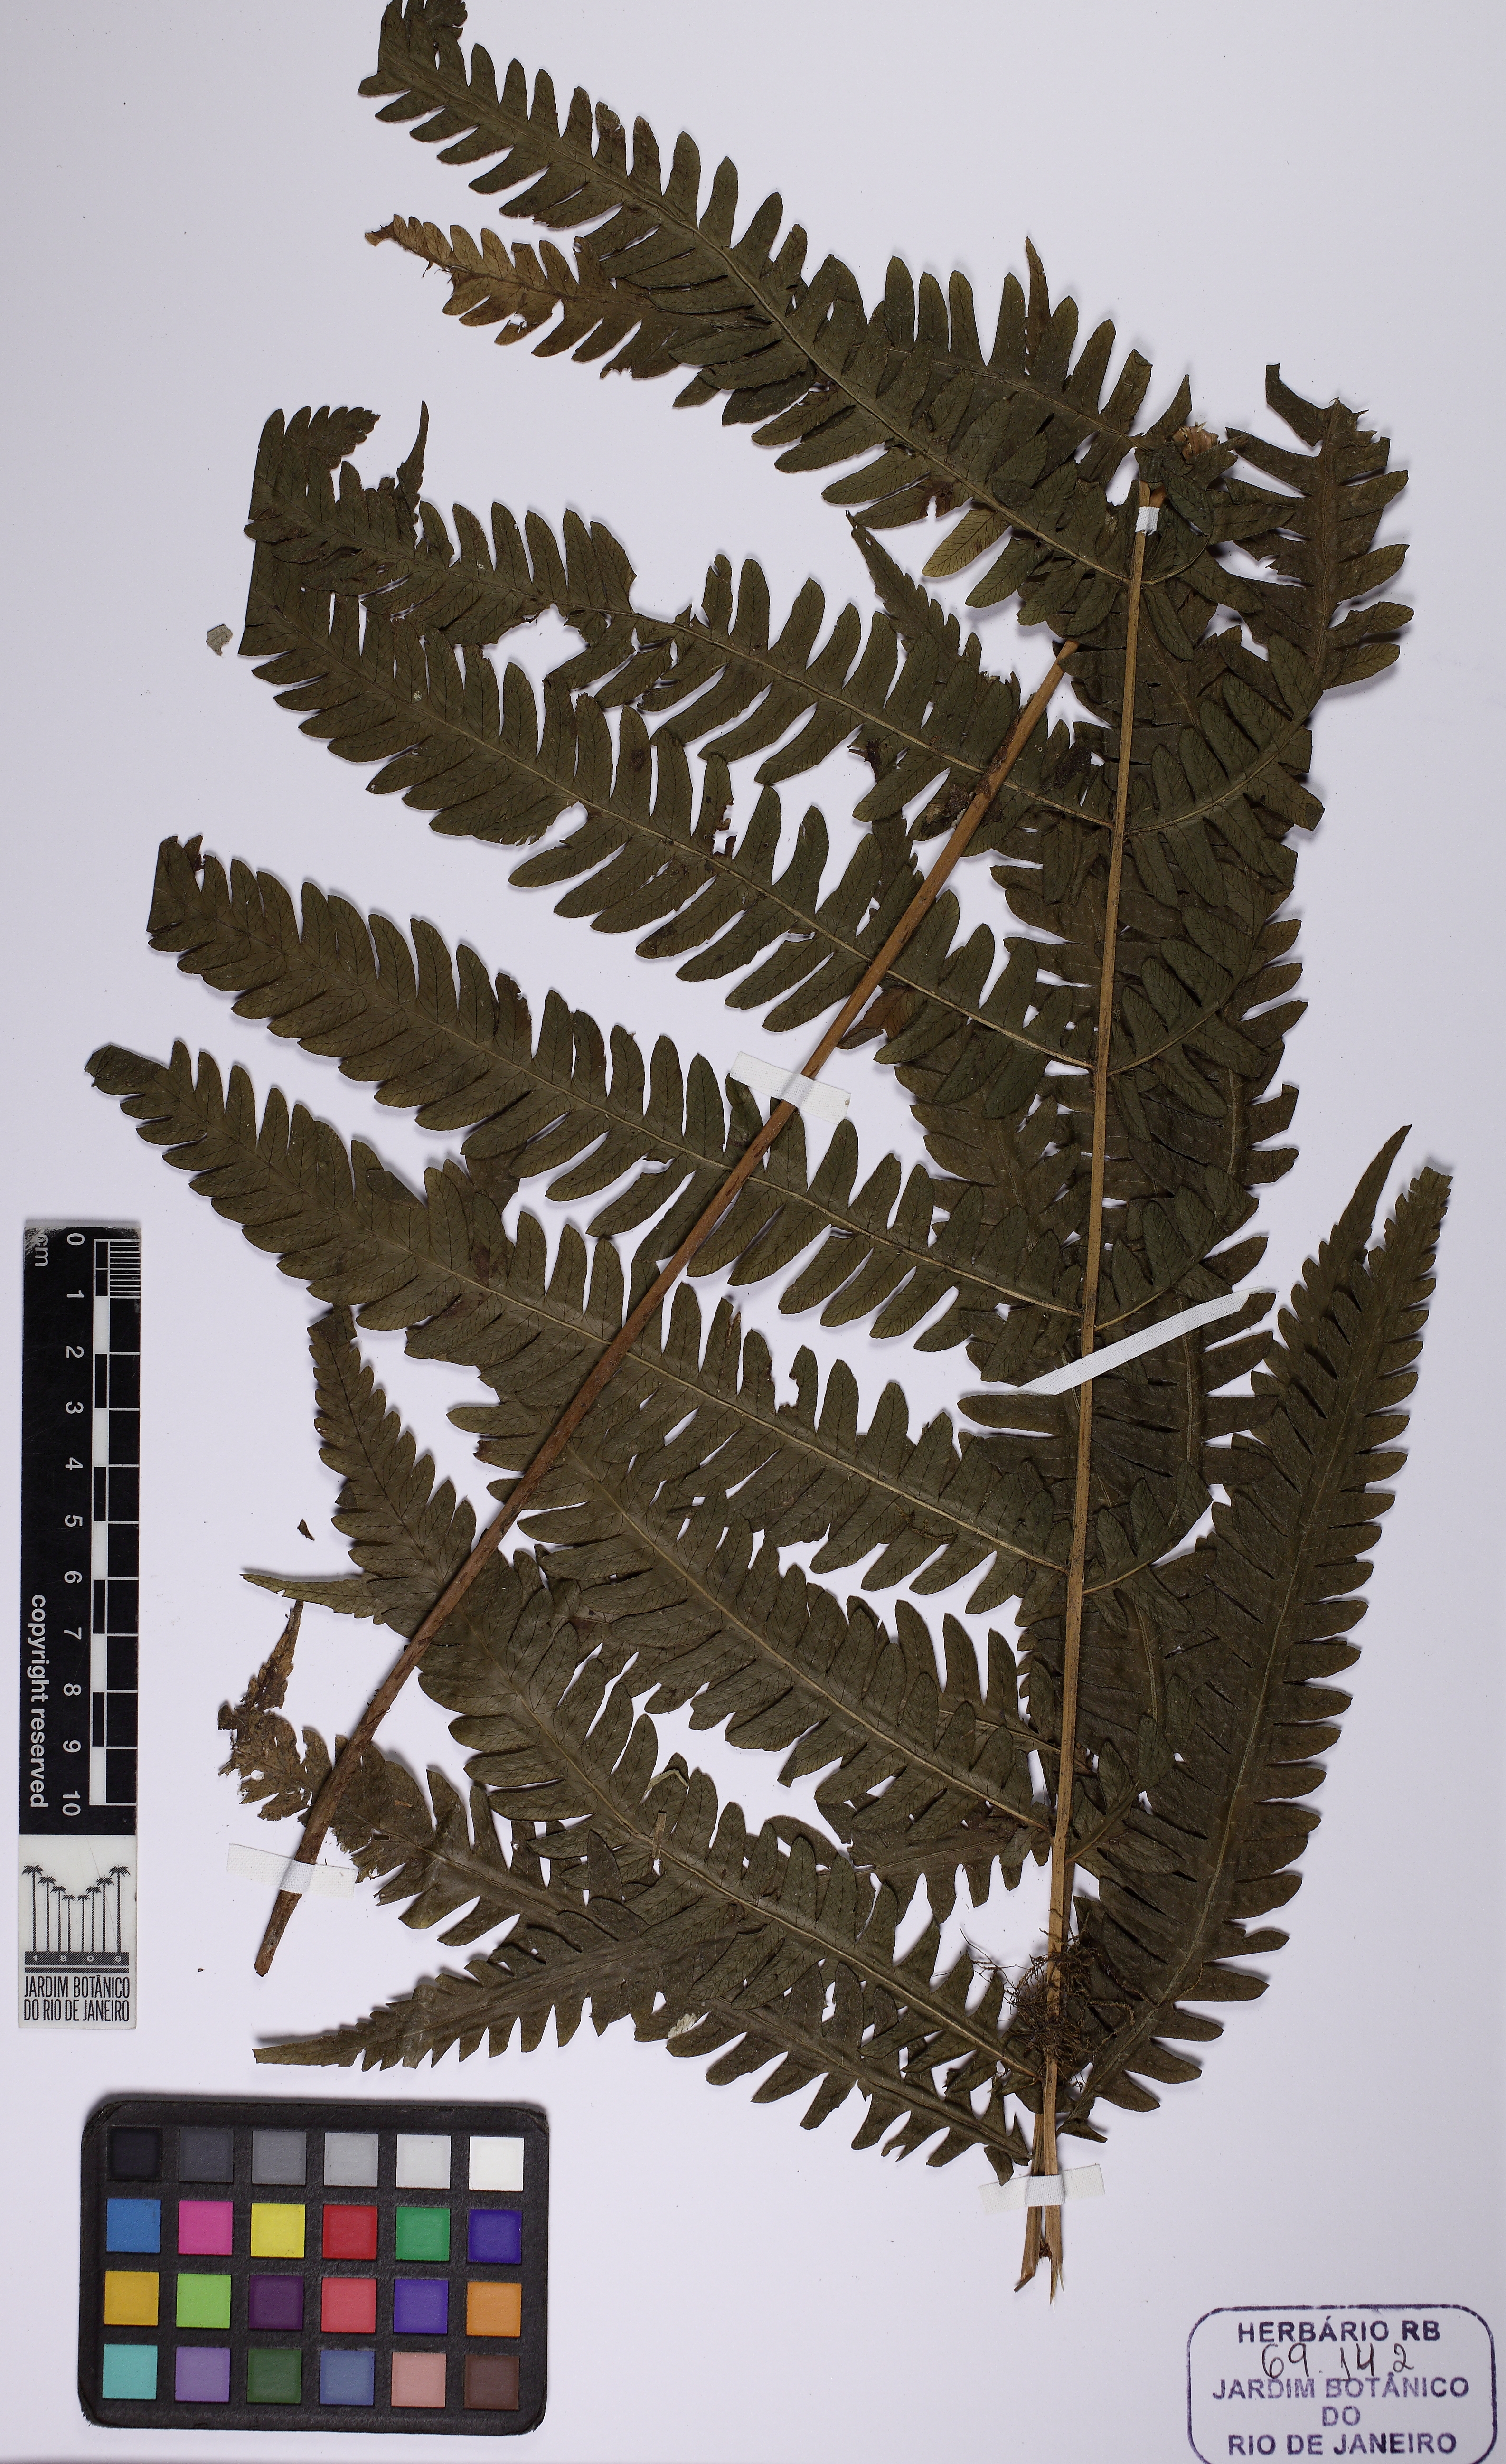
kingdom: Plantae
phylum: Tracheophyta
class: Polypodiopsida
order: Polypodiales
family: Thelypteridaceae
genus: Amauropelta
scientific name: Amauropelta tenerrima
